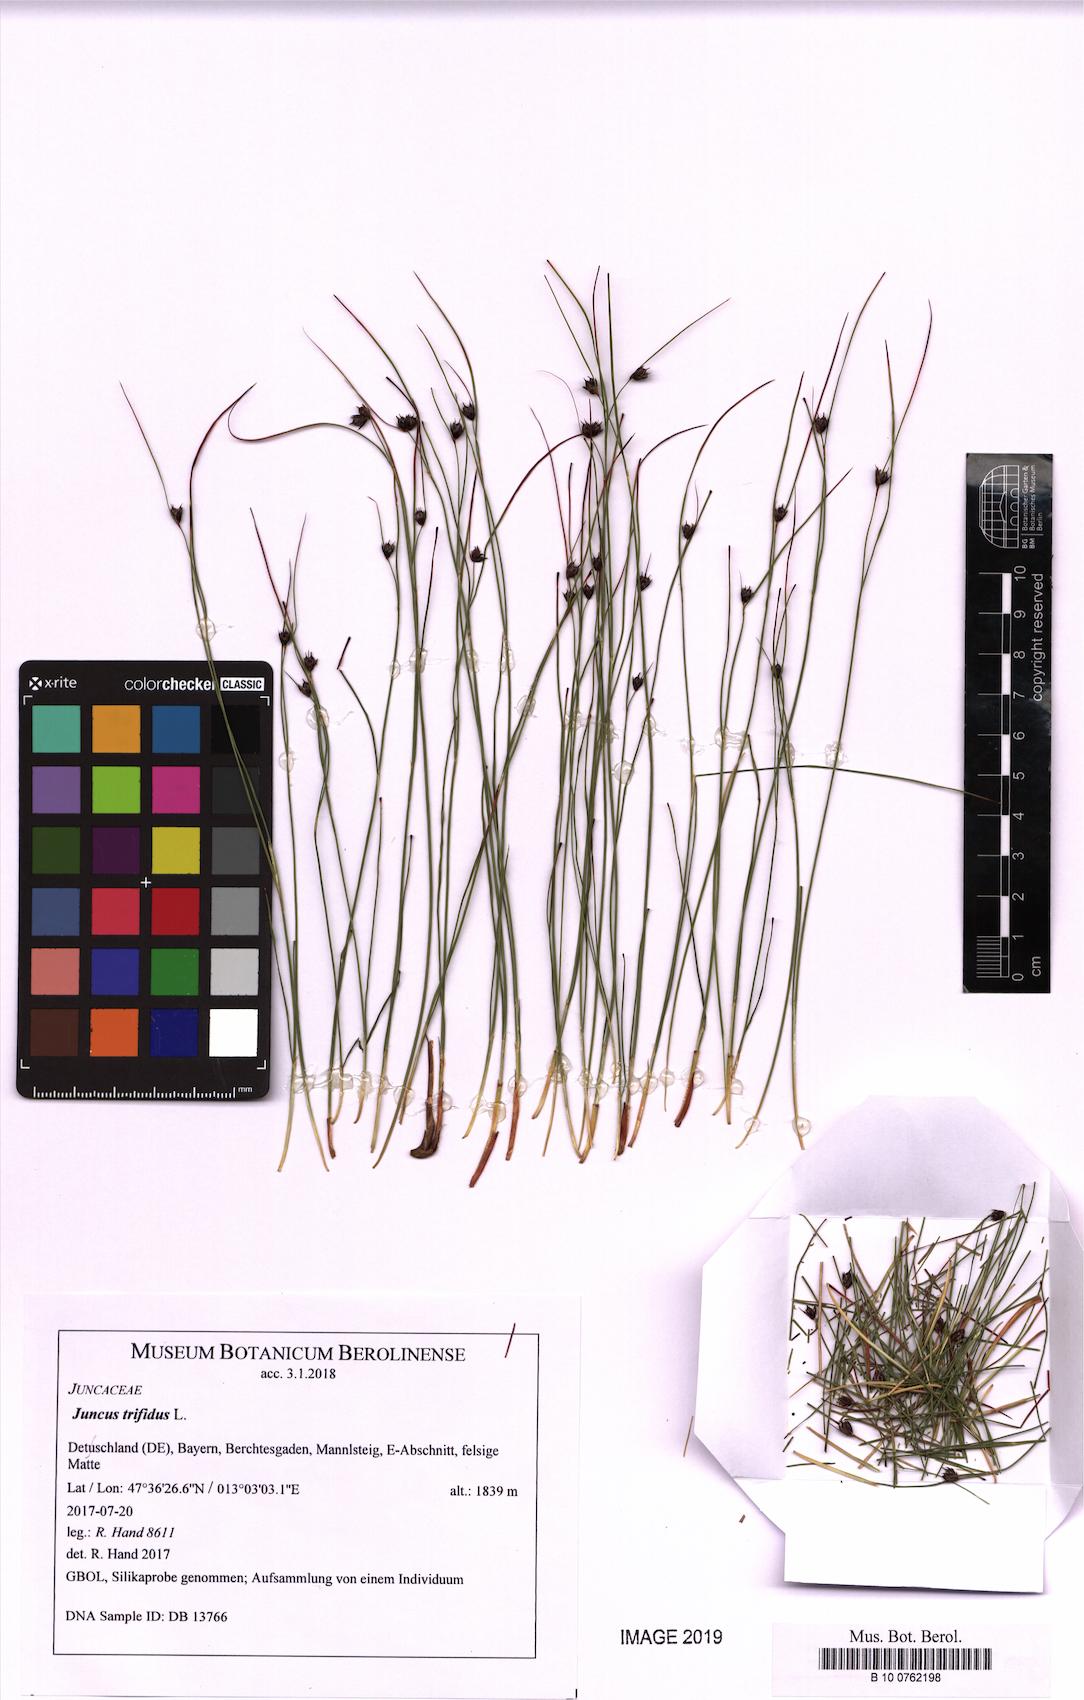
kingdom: Plantae
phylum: Tracheophyta
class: Liliopsida
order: Poales
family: Juncaceae
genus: Oreojuncus
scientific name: Oreojuncus trifidus
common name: Highland rush
